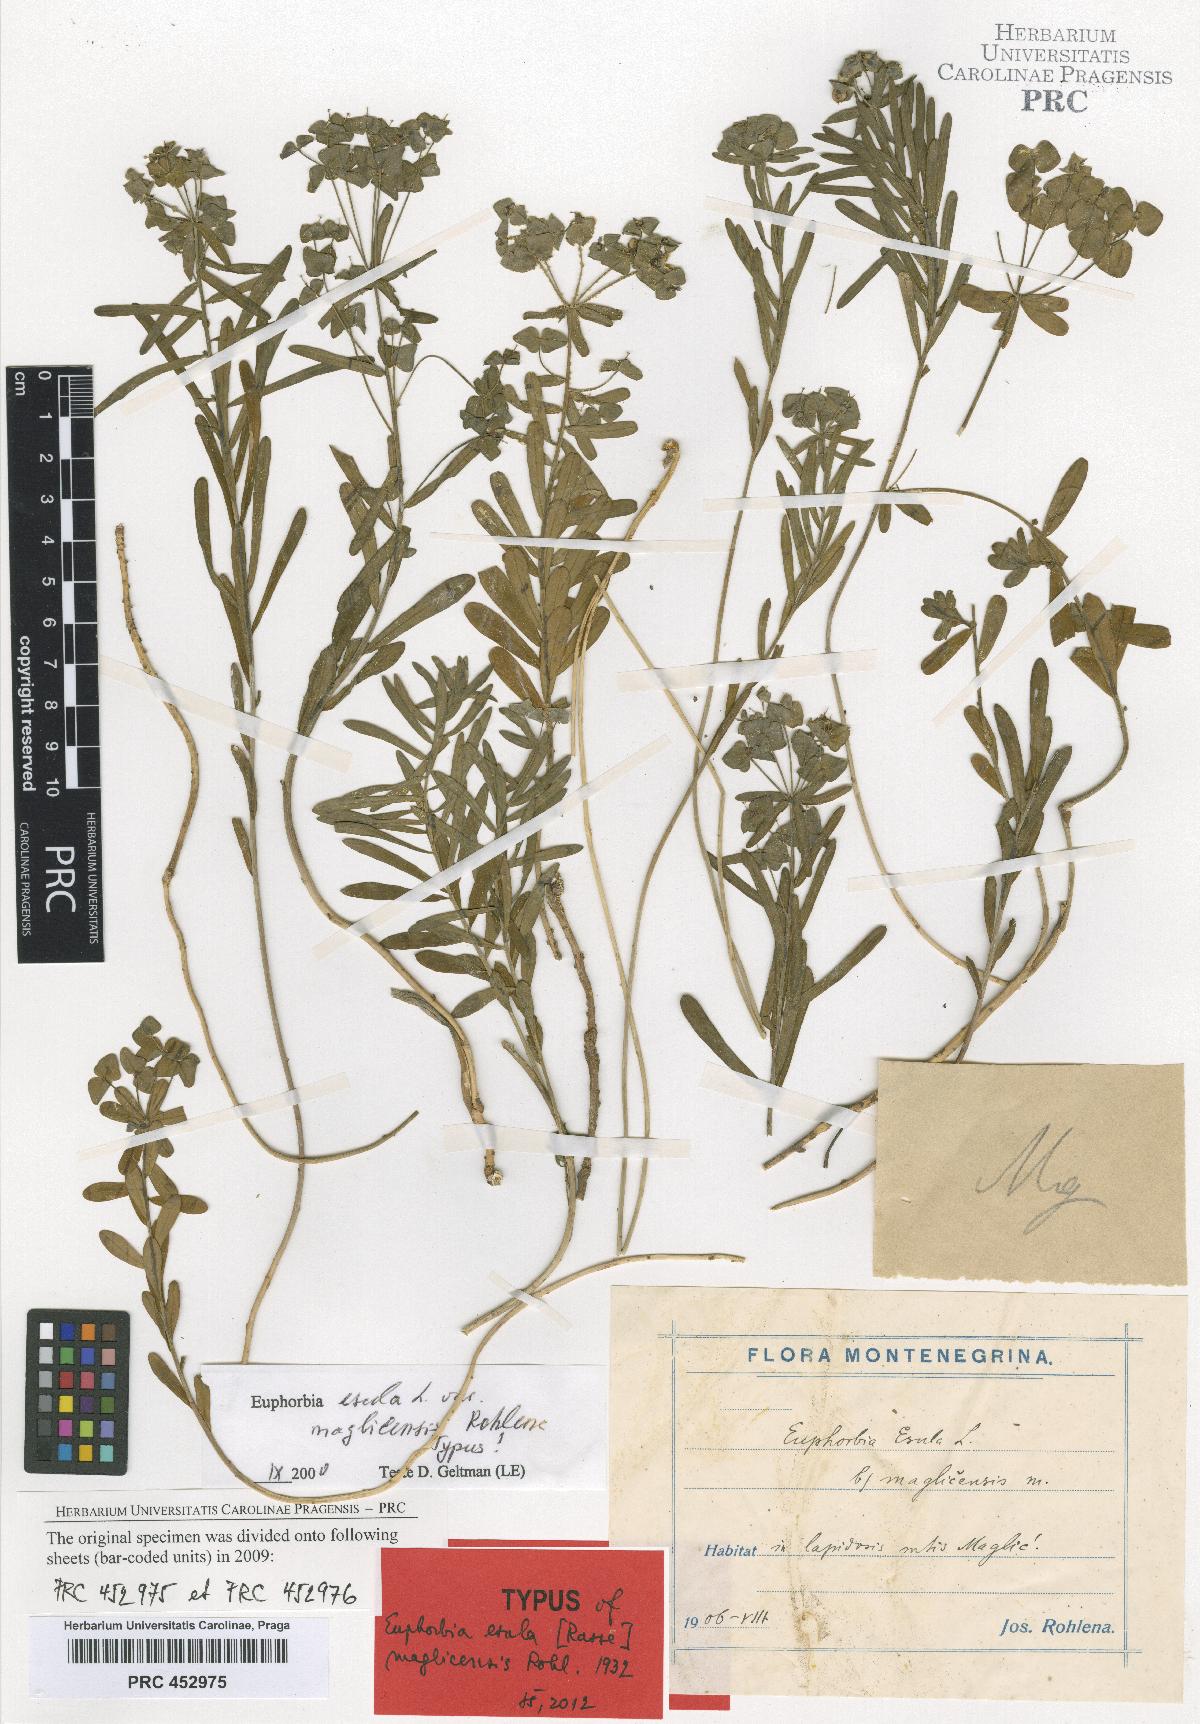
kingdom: Plantae
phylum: Tracheophyta
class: Magnoliopsida
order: Malpighiales
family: Euphorbiaceae
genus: Euphorbia
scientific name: Euphorbia esula
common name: Leafy spurge
